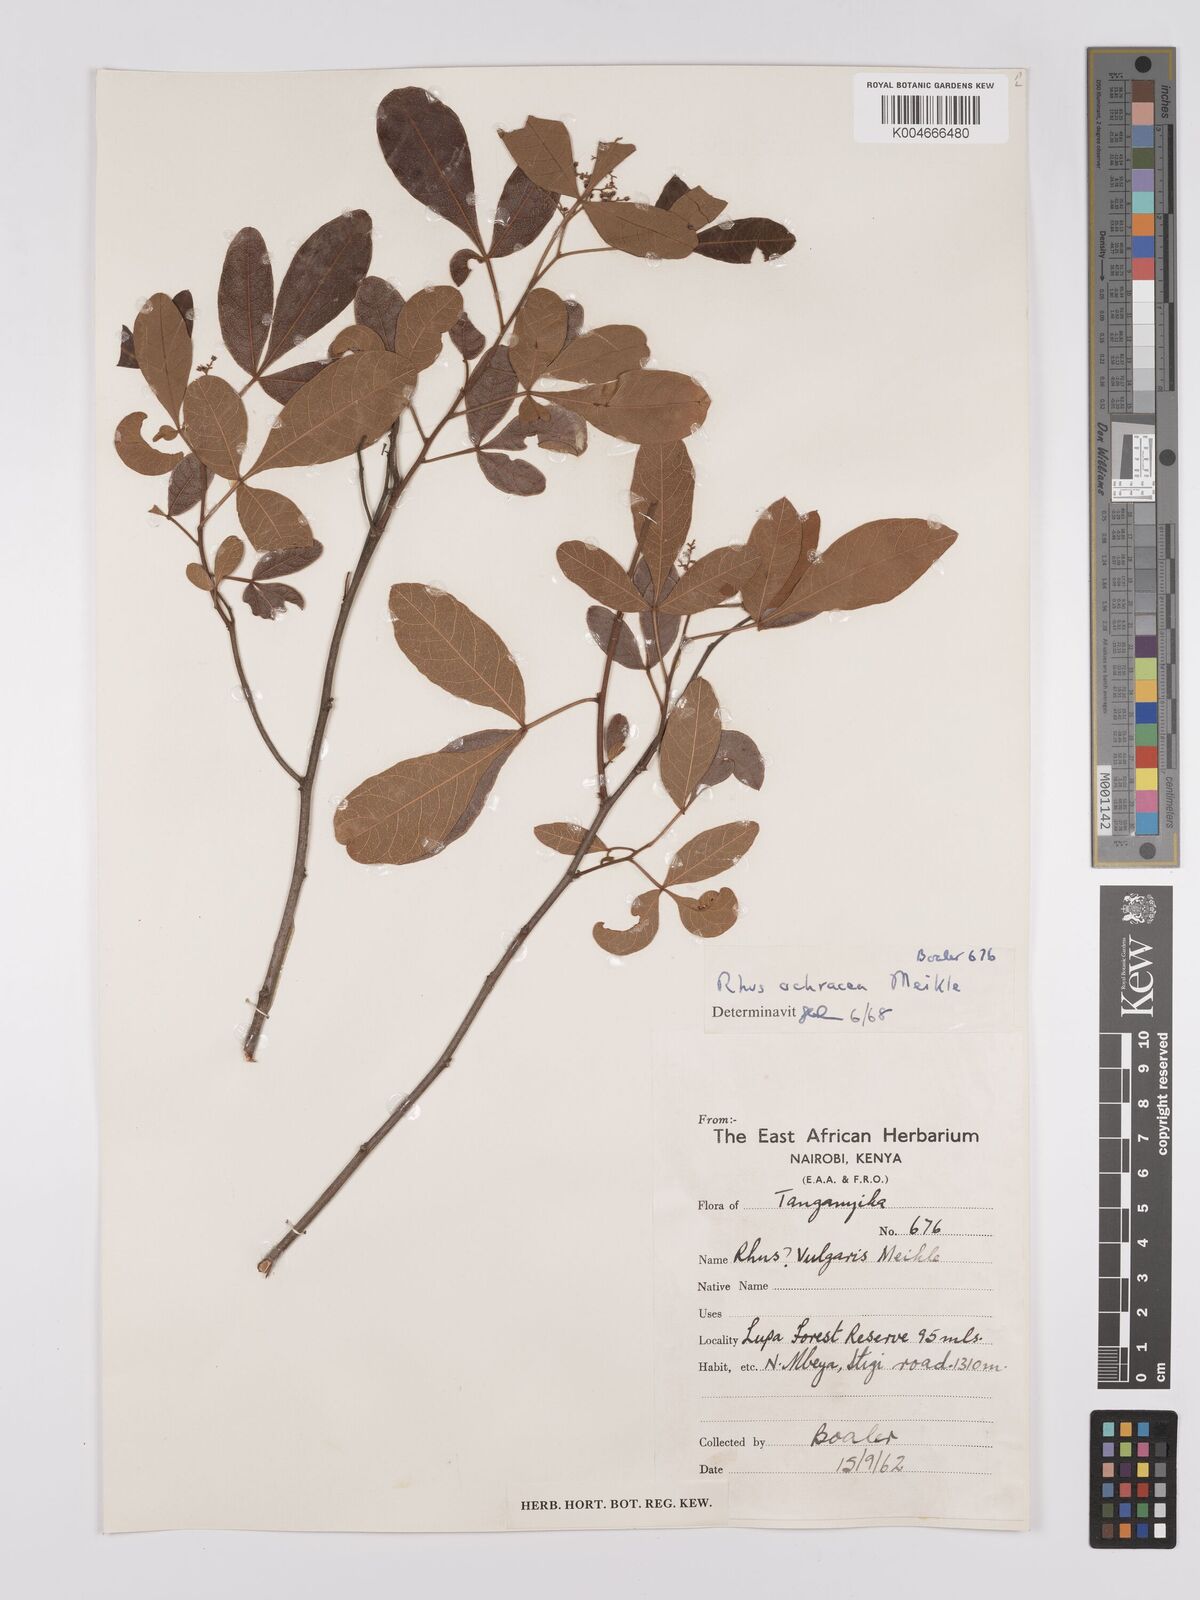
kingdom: Plantae
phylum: Tracheophyta
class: Magnoliopsida
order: Sapindales
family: Anacardiaceae
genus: Searsia
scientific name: Searsia ochracea
